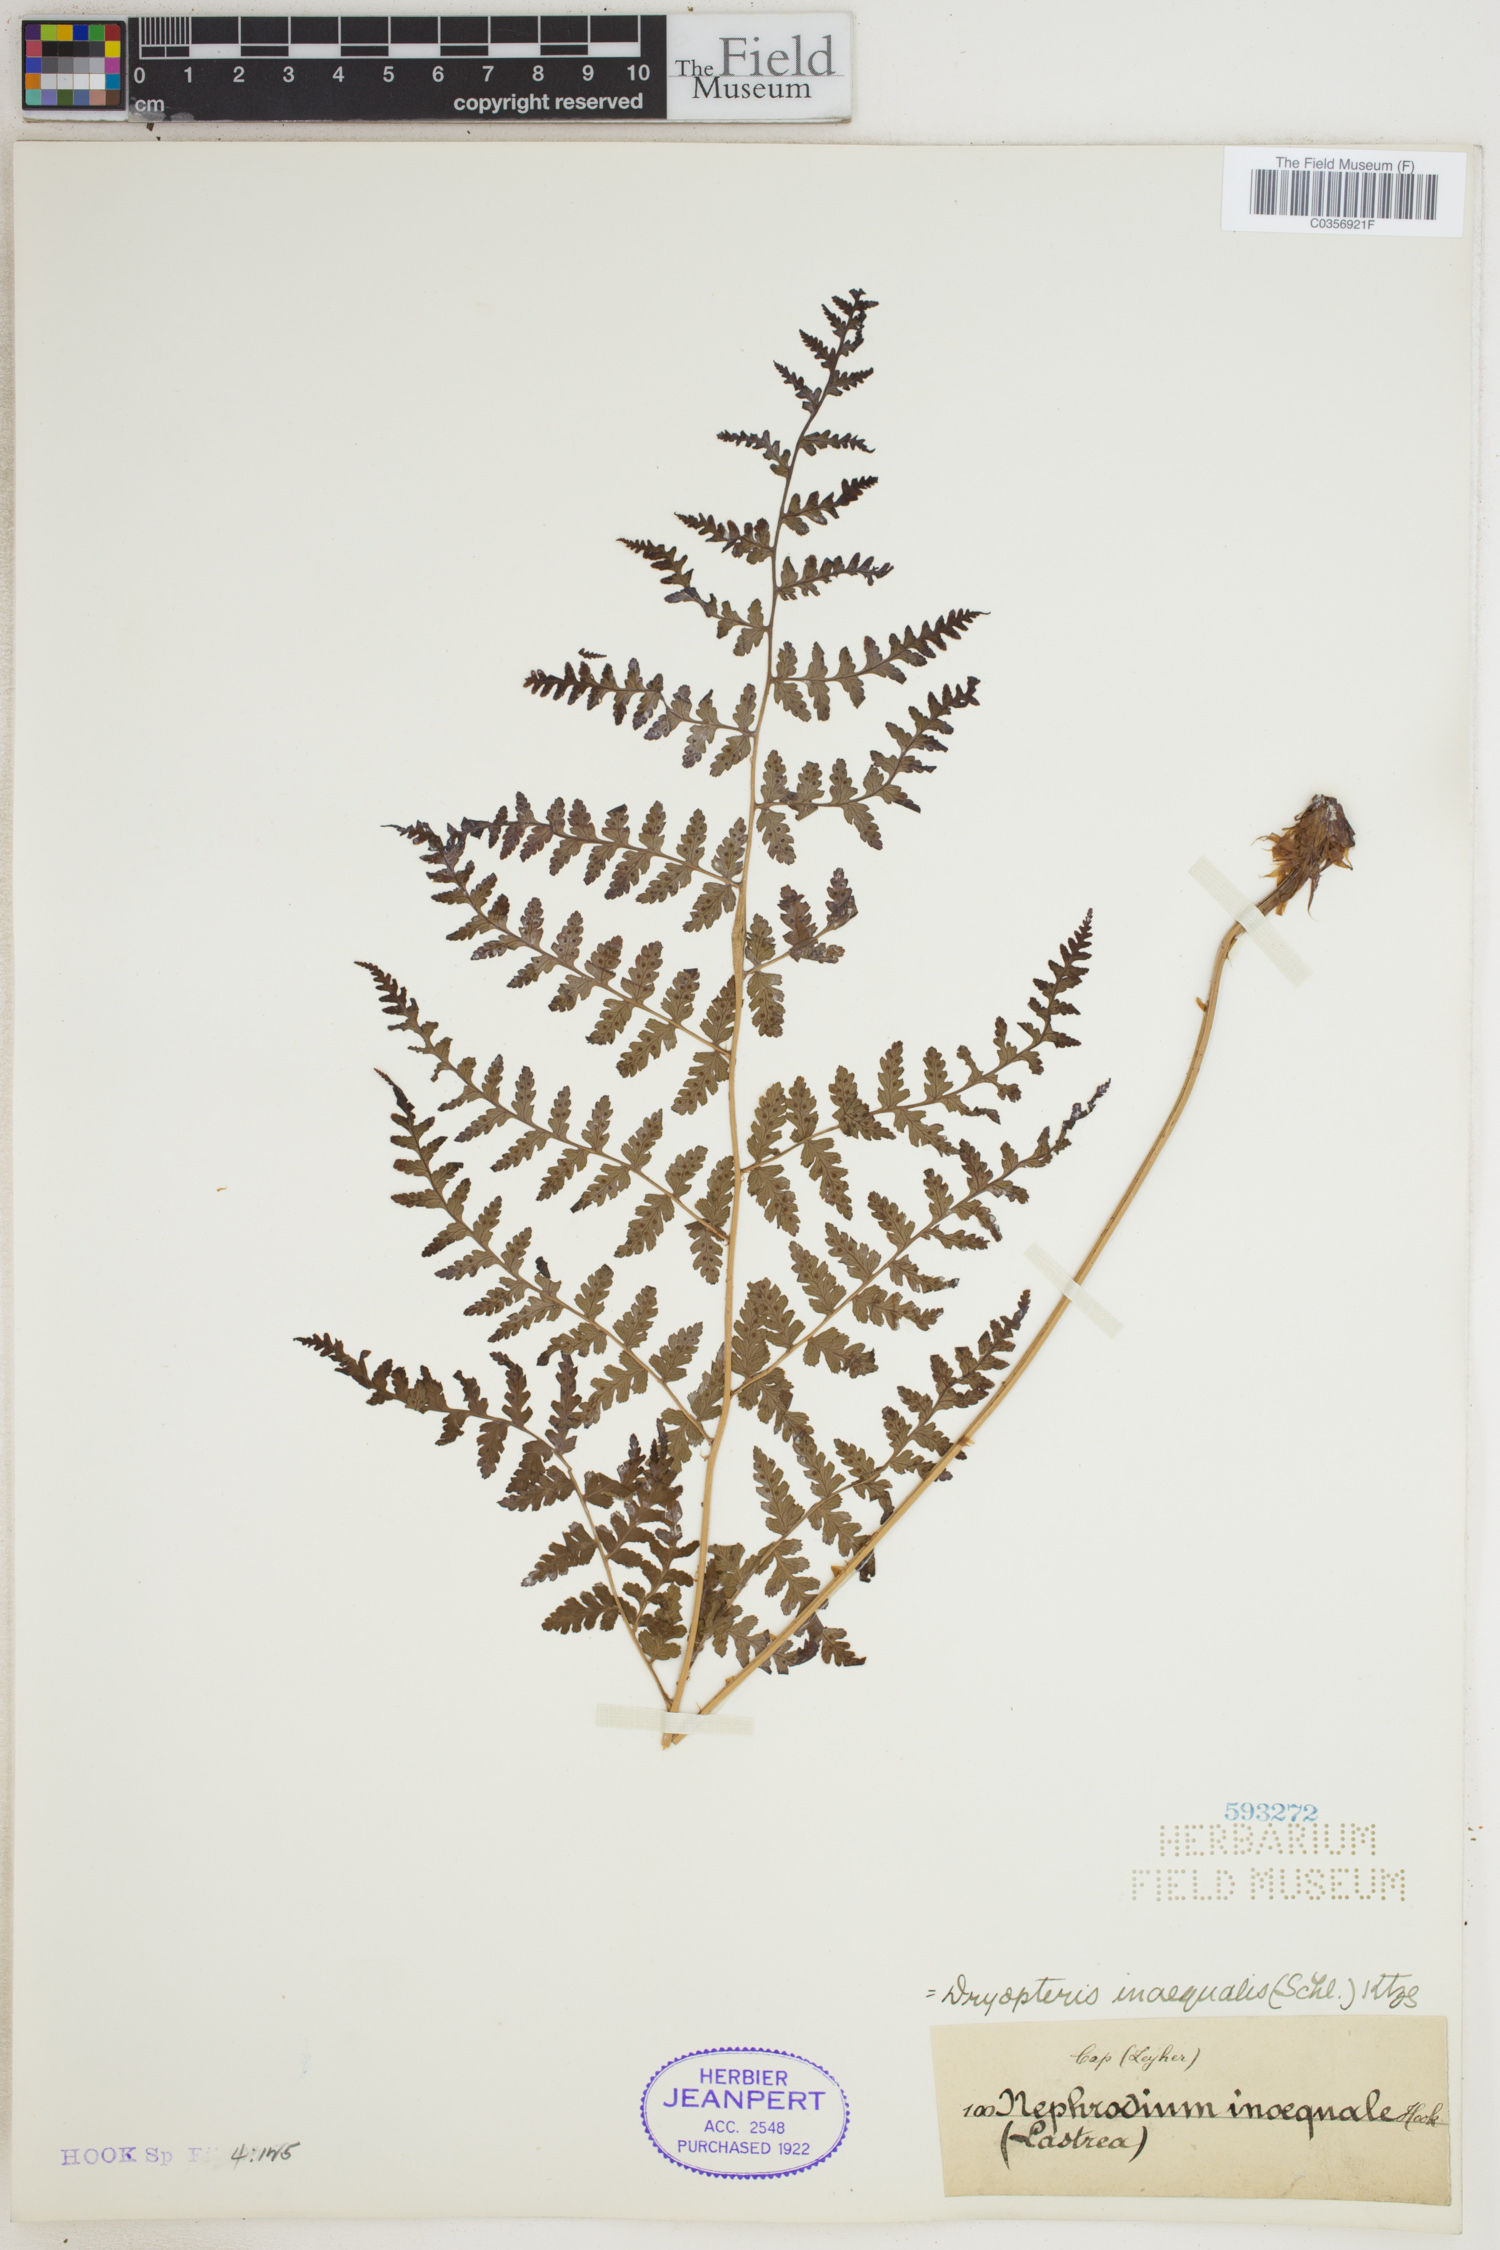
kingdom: Plantae
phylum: Tracheophyta
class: Polypodiopsida
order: Polypodiales
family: Dryopteridaceae
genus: Dryopteris
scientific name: Dryopteris inaequalis
